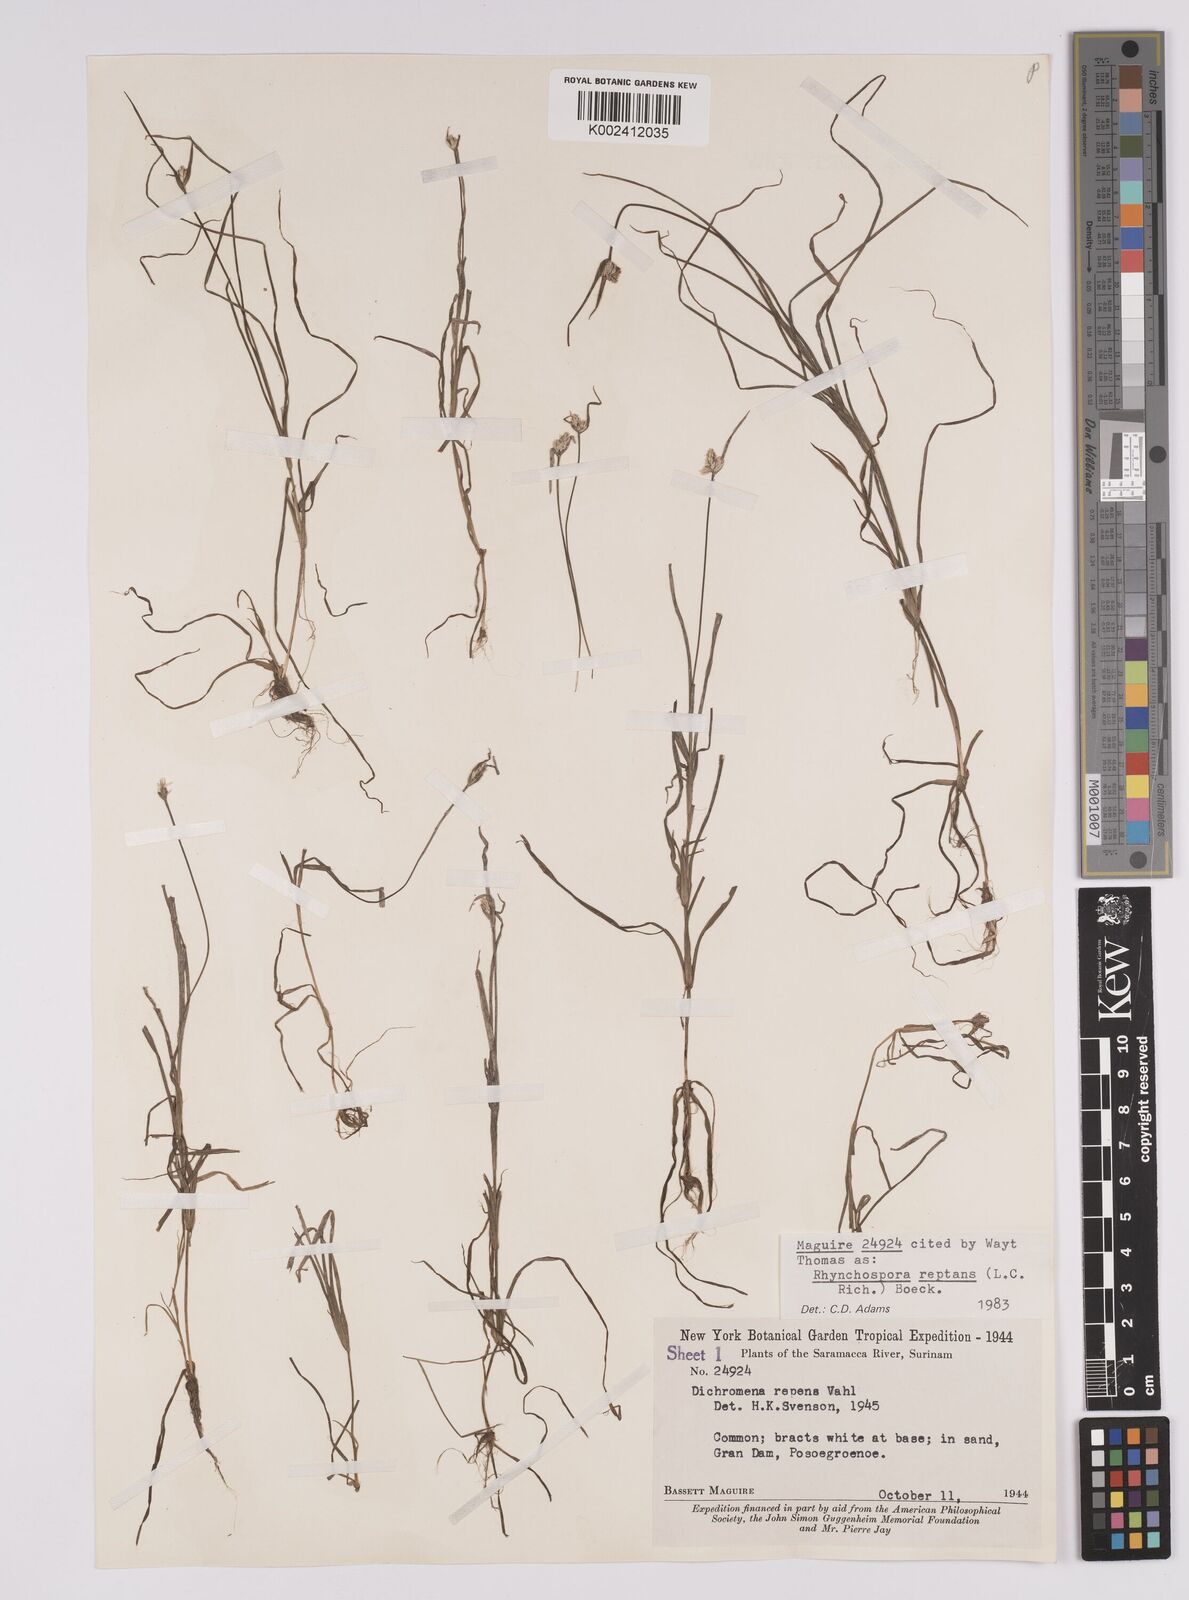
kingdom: Plantae
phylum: Tracheophyta
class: Liliopsida
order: Poales
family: Cyperaceae
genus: Rhynchospora
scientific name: Rhynchospora reptans
